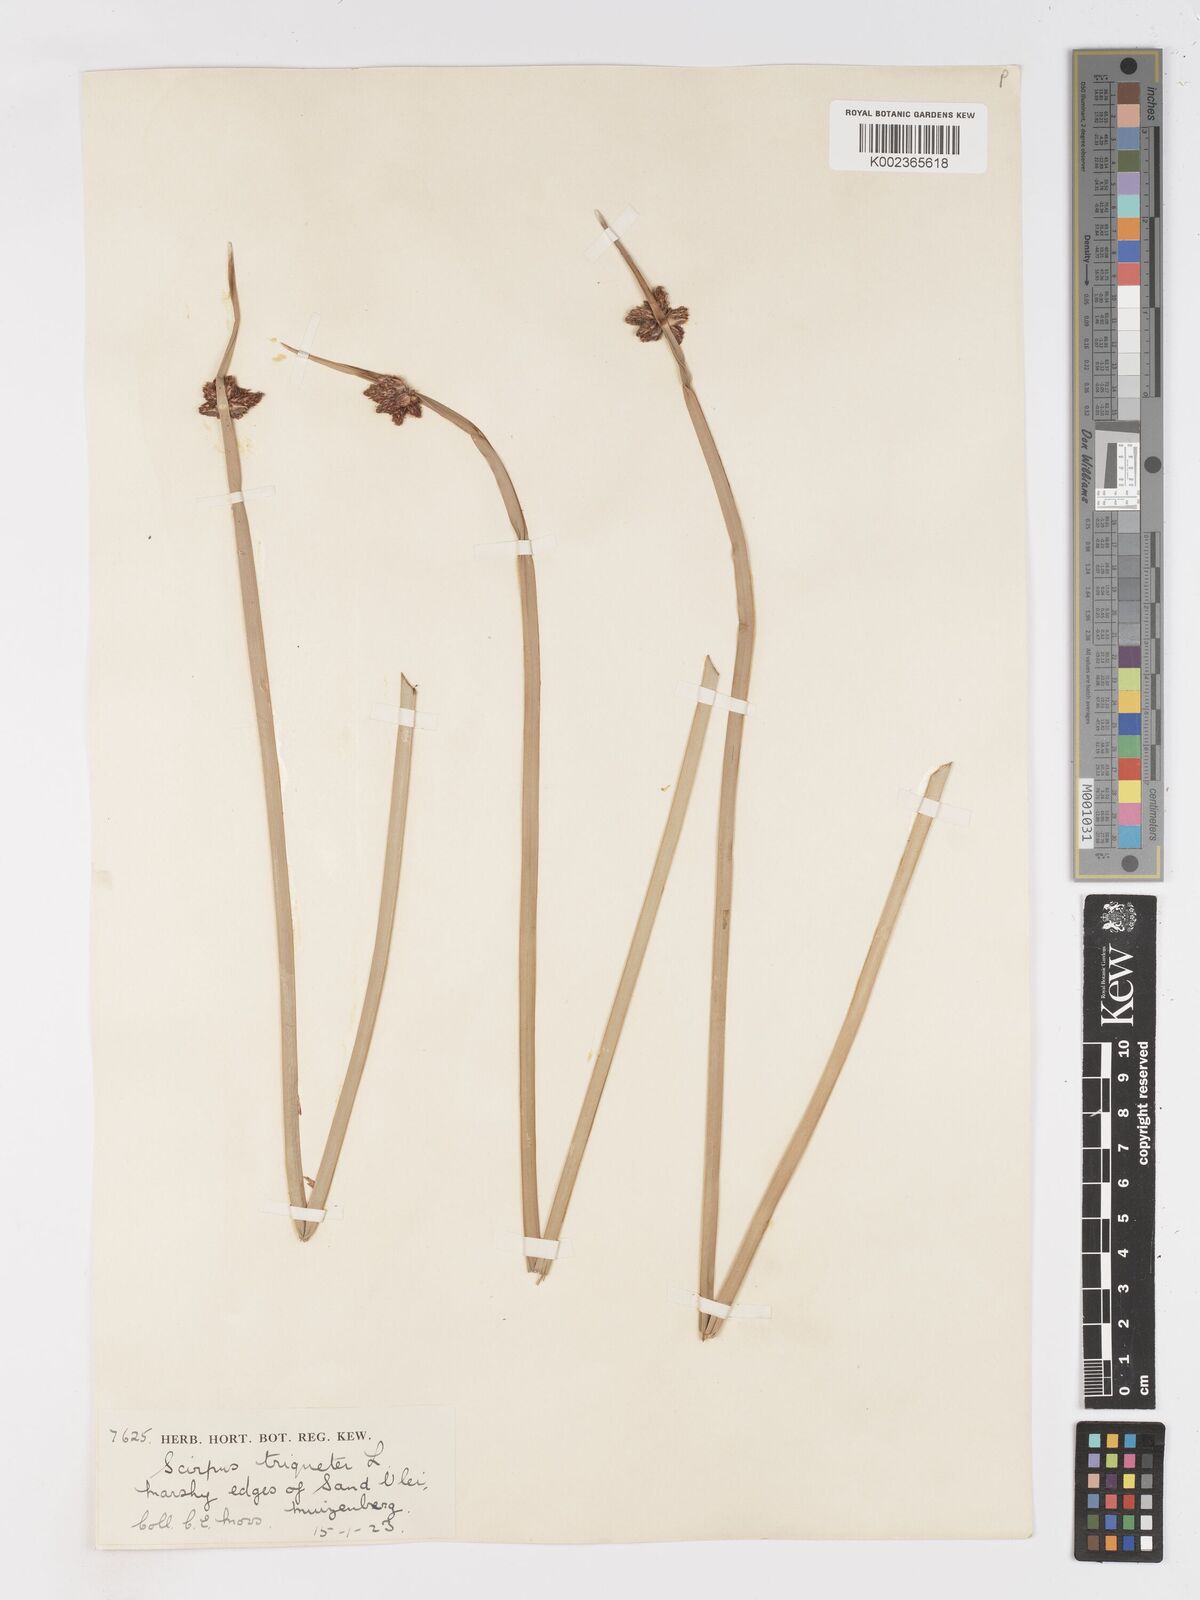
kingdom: Plantae
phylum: Tracheophyta
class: Liliopsida
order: Poales
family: Cyperaceae
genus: Schoenoplectus
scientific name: Schoenoplectus triqueter
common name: Triangular club-rush
